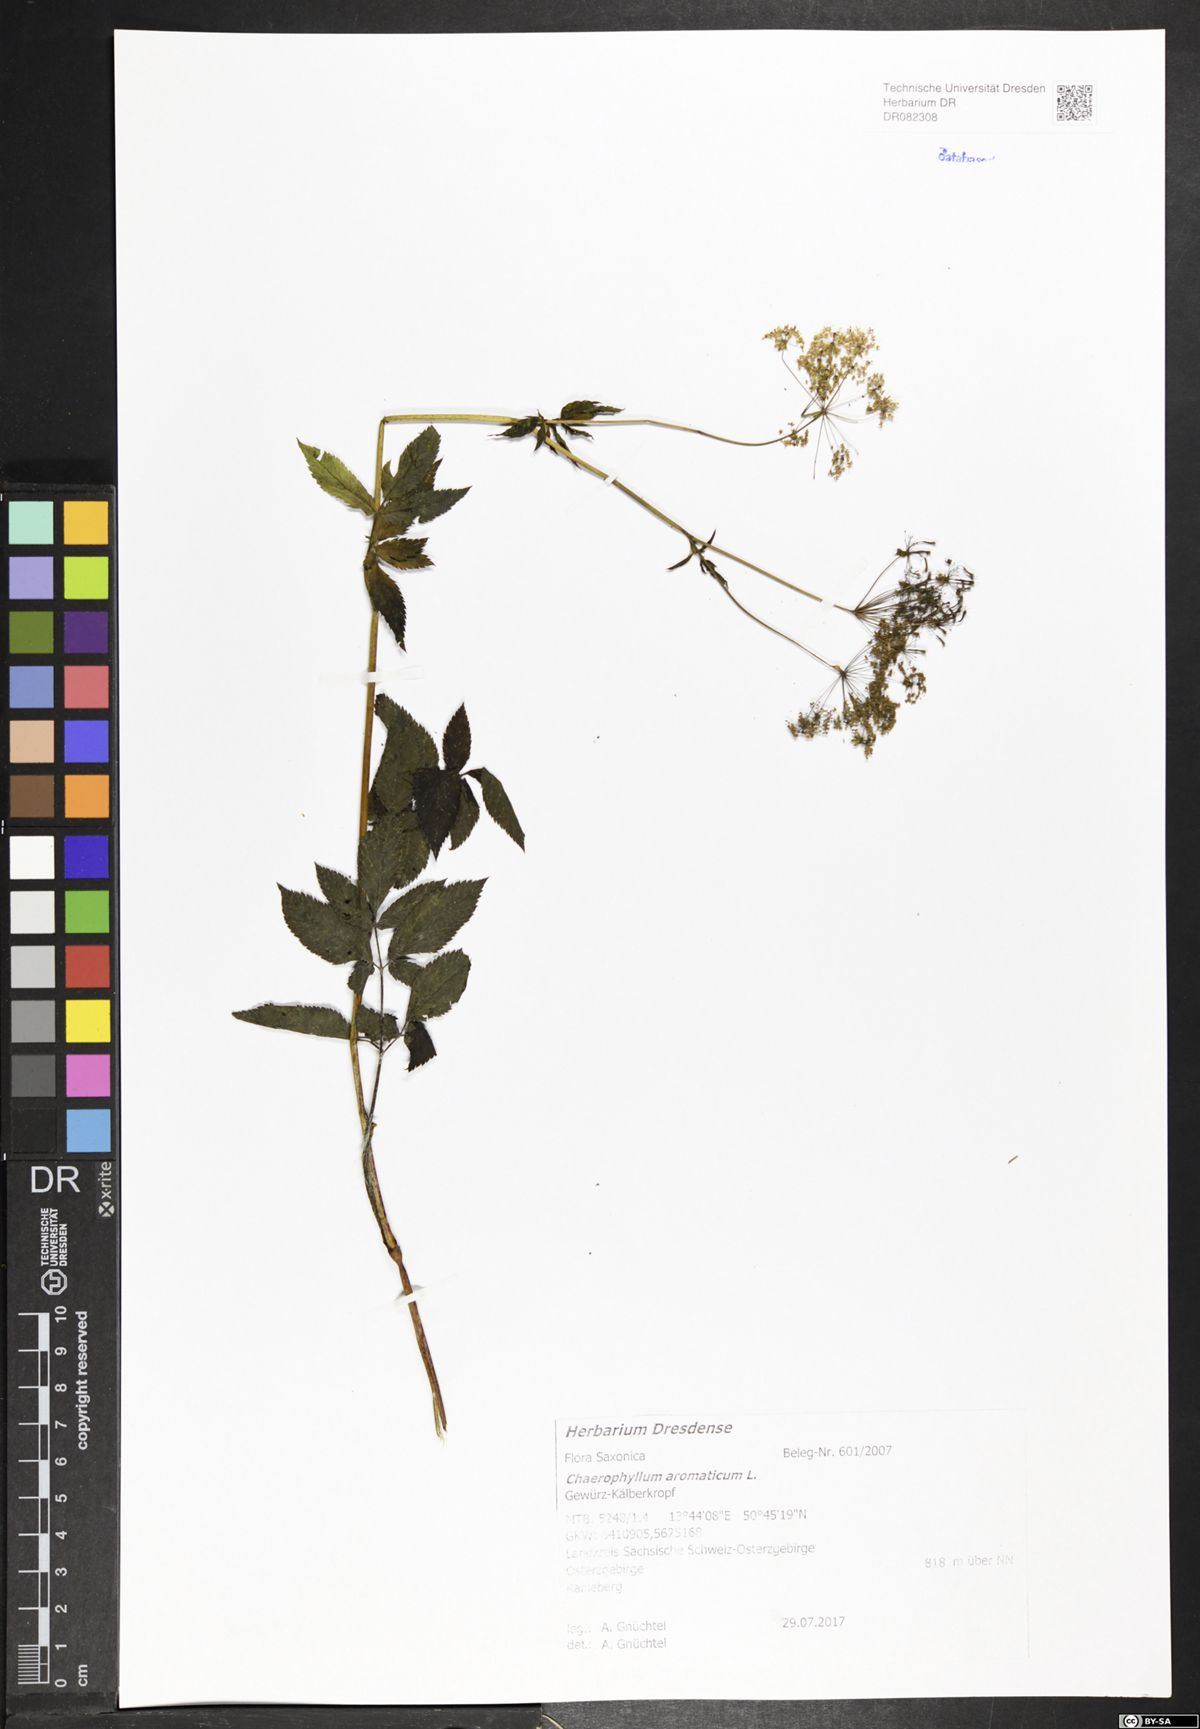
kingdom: Plantae
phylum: Tracheophyta
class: Magnoliopsida
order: Apiales
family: Apiaceae
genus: Chaerophyllum
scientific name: Chaerophyllum aromaticum
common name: Broadleaf chervil
